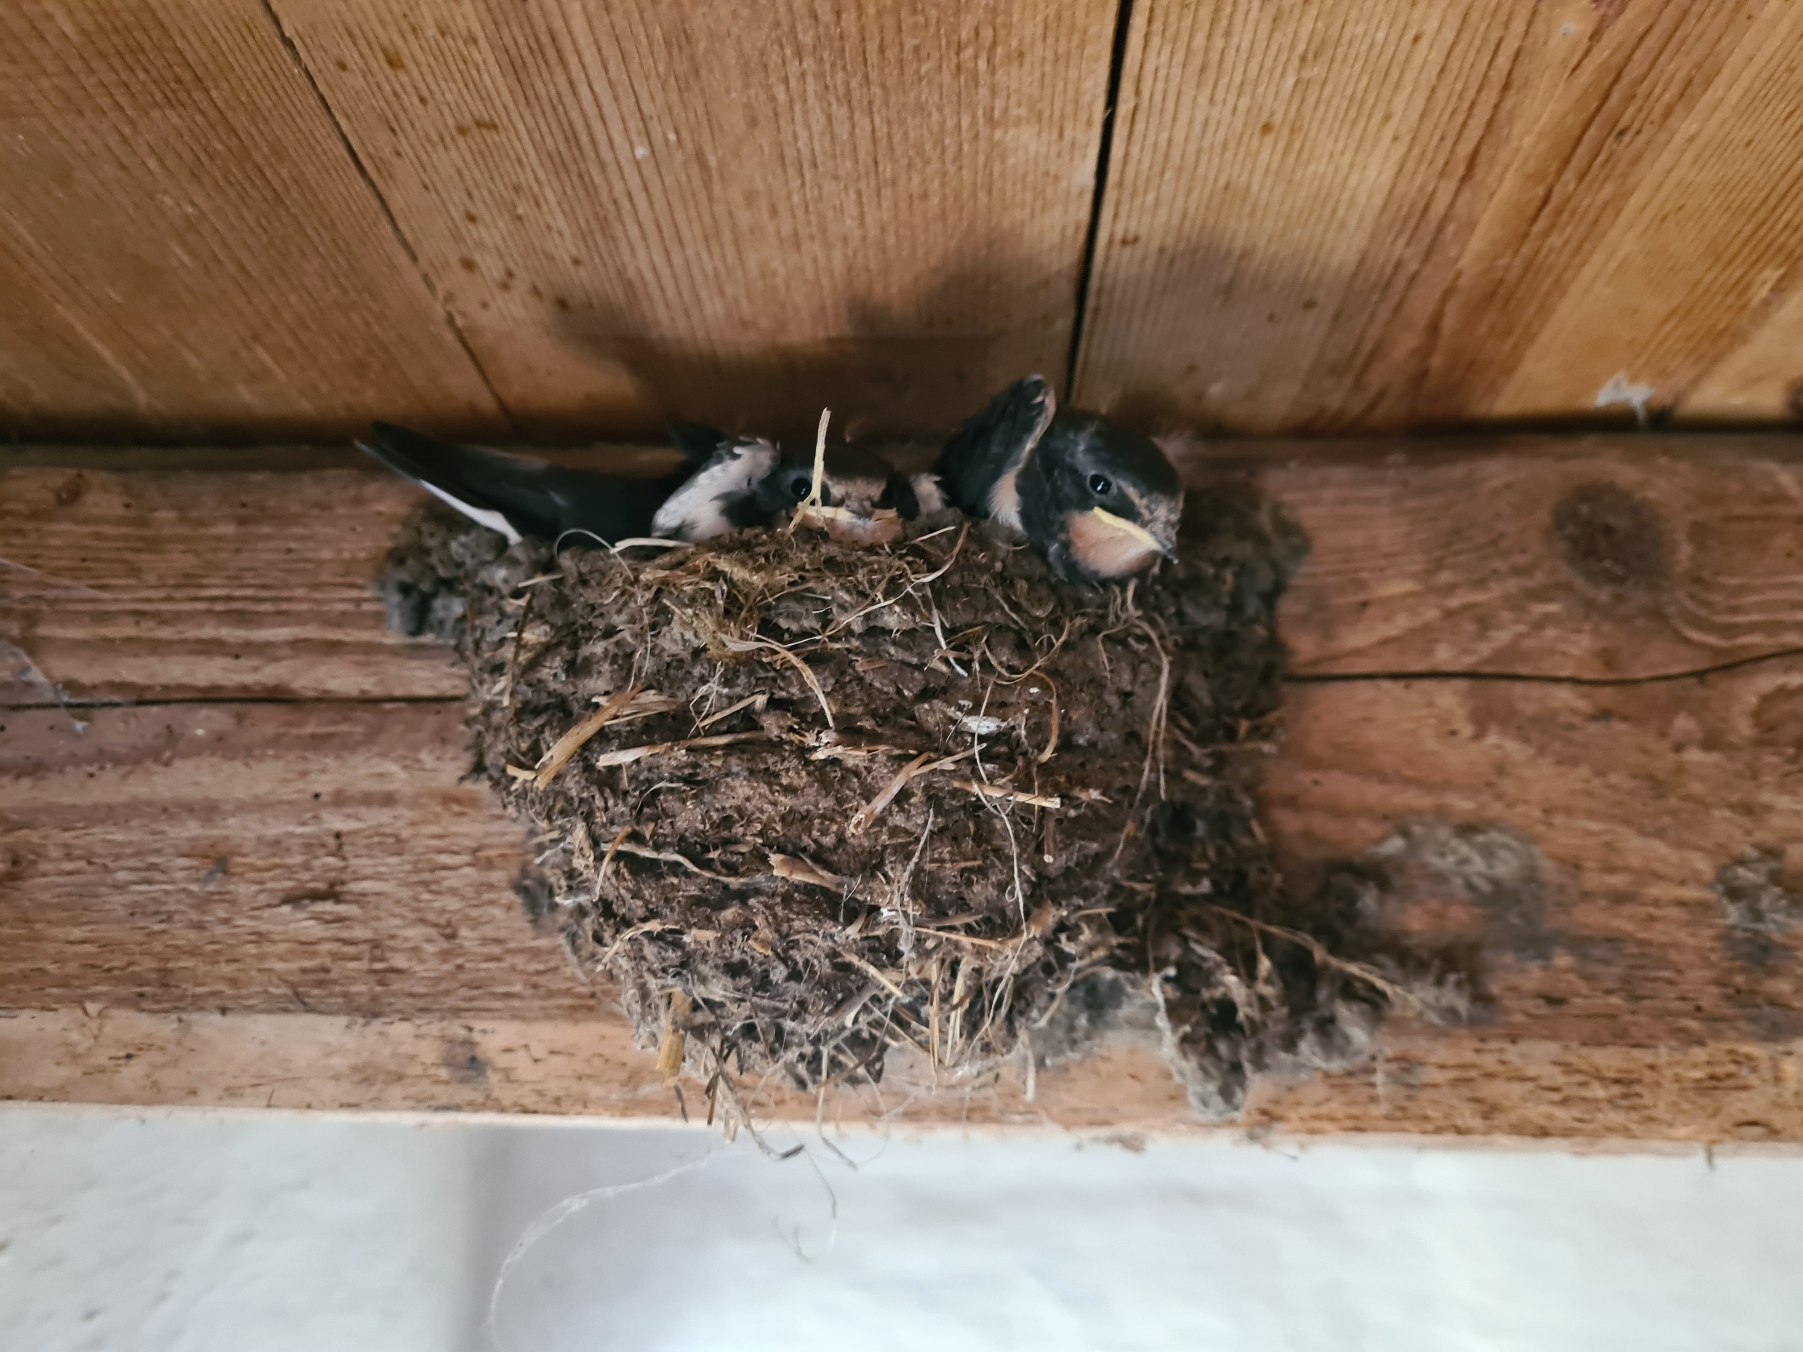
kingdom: Animalia
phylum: Chordata
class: Aves
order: Passeriformes
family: Hirundinidae
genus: Hirundo
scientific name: Hirundo rustica
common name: Landsvale
